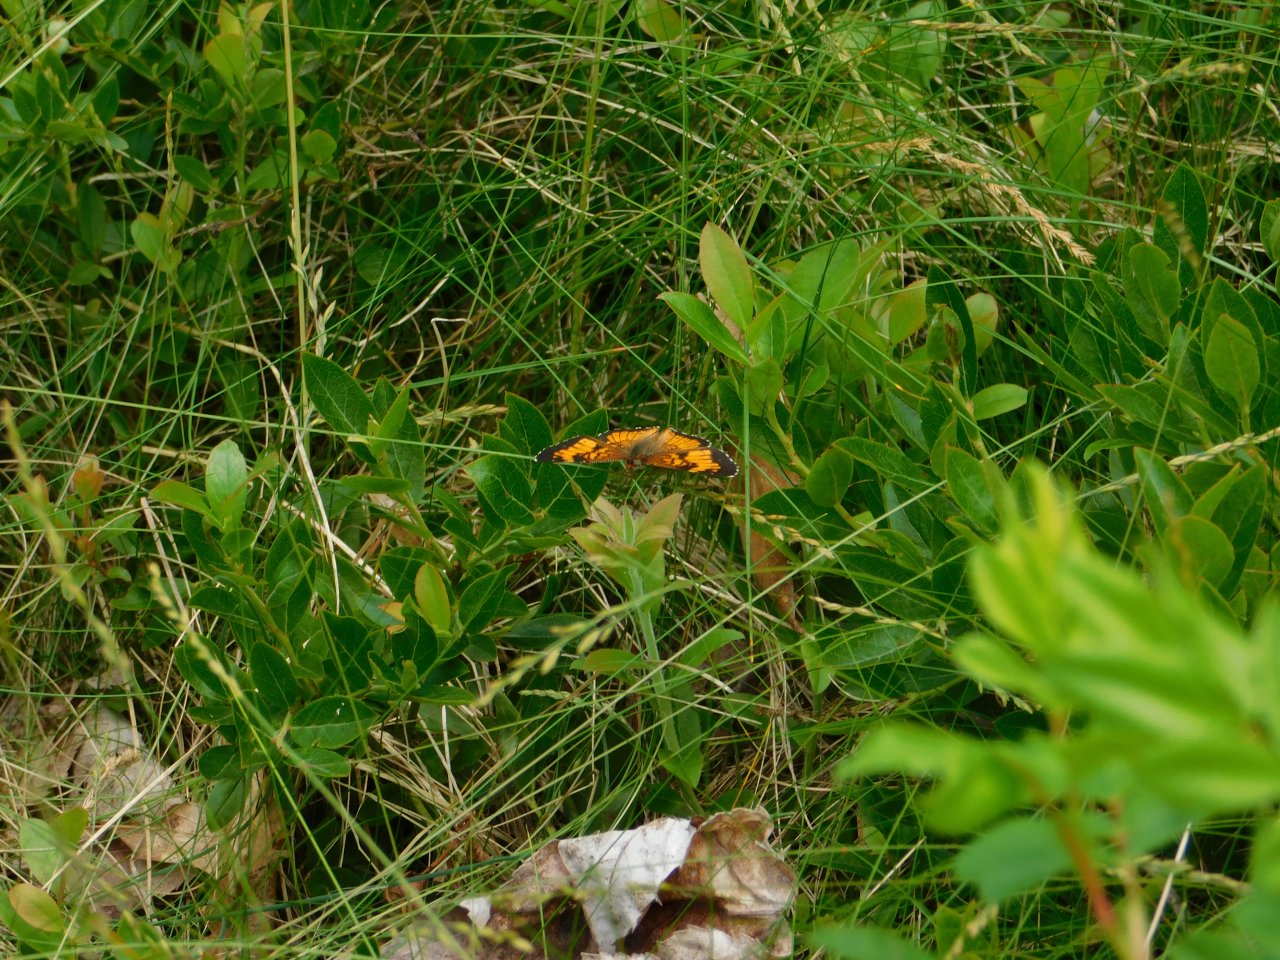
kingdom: Animalia
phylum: Arthropoda
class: Insecta
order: Lepidoptera
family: Nymphalidae
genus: Chlosyne
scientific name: Chlosyne harrisii
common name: Harris's Checkerspot
